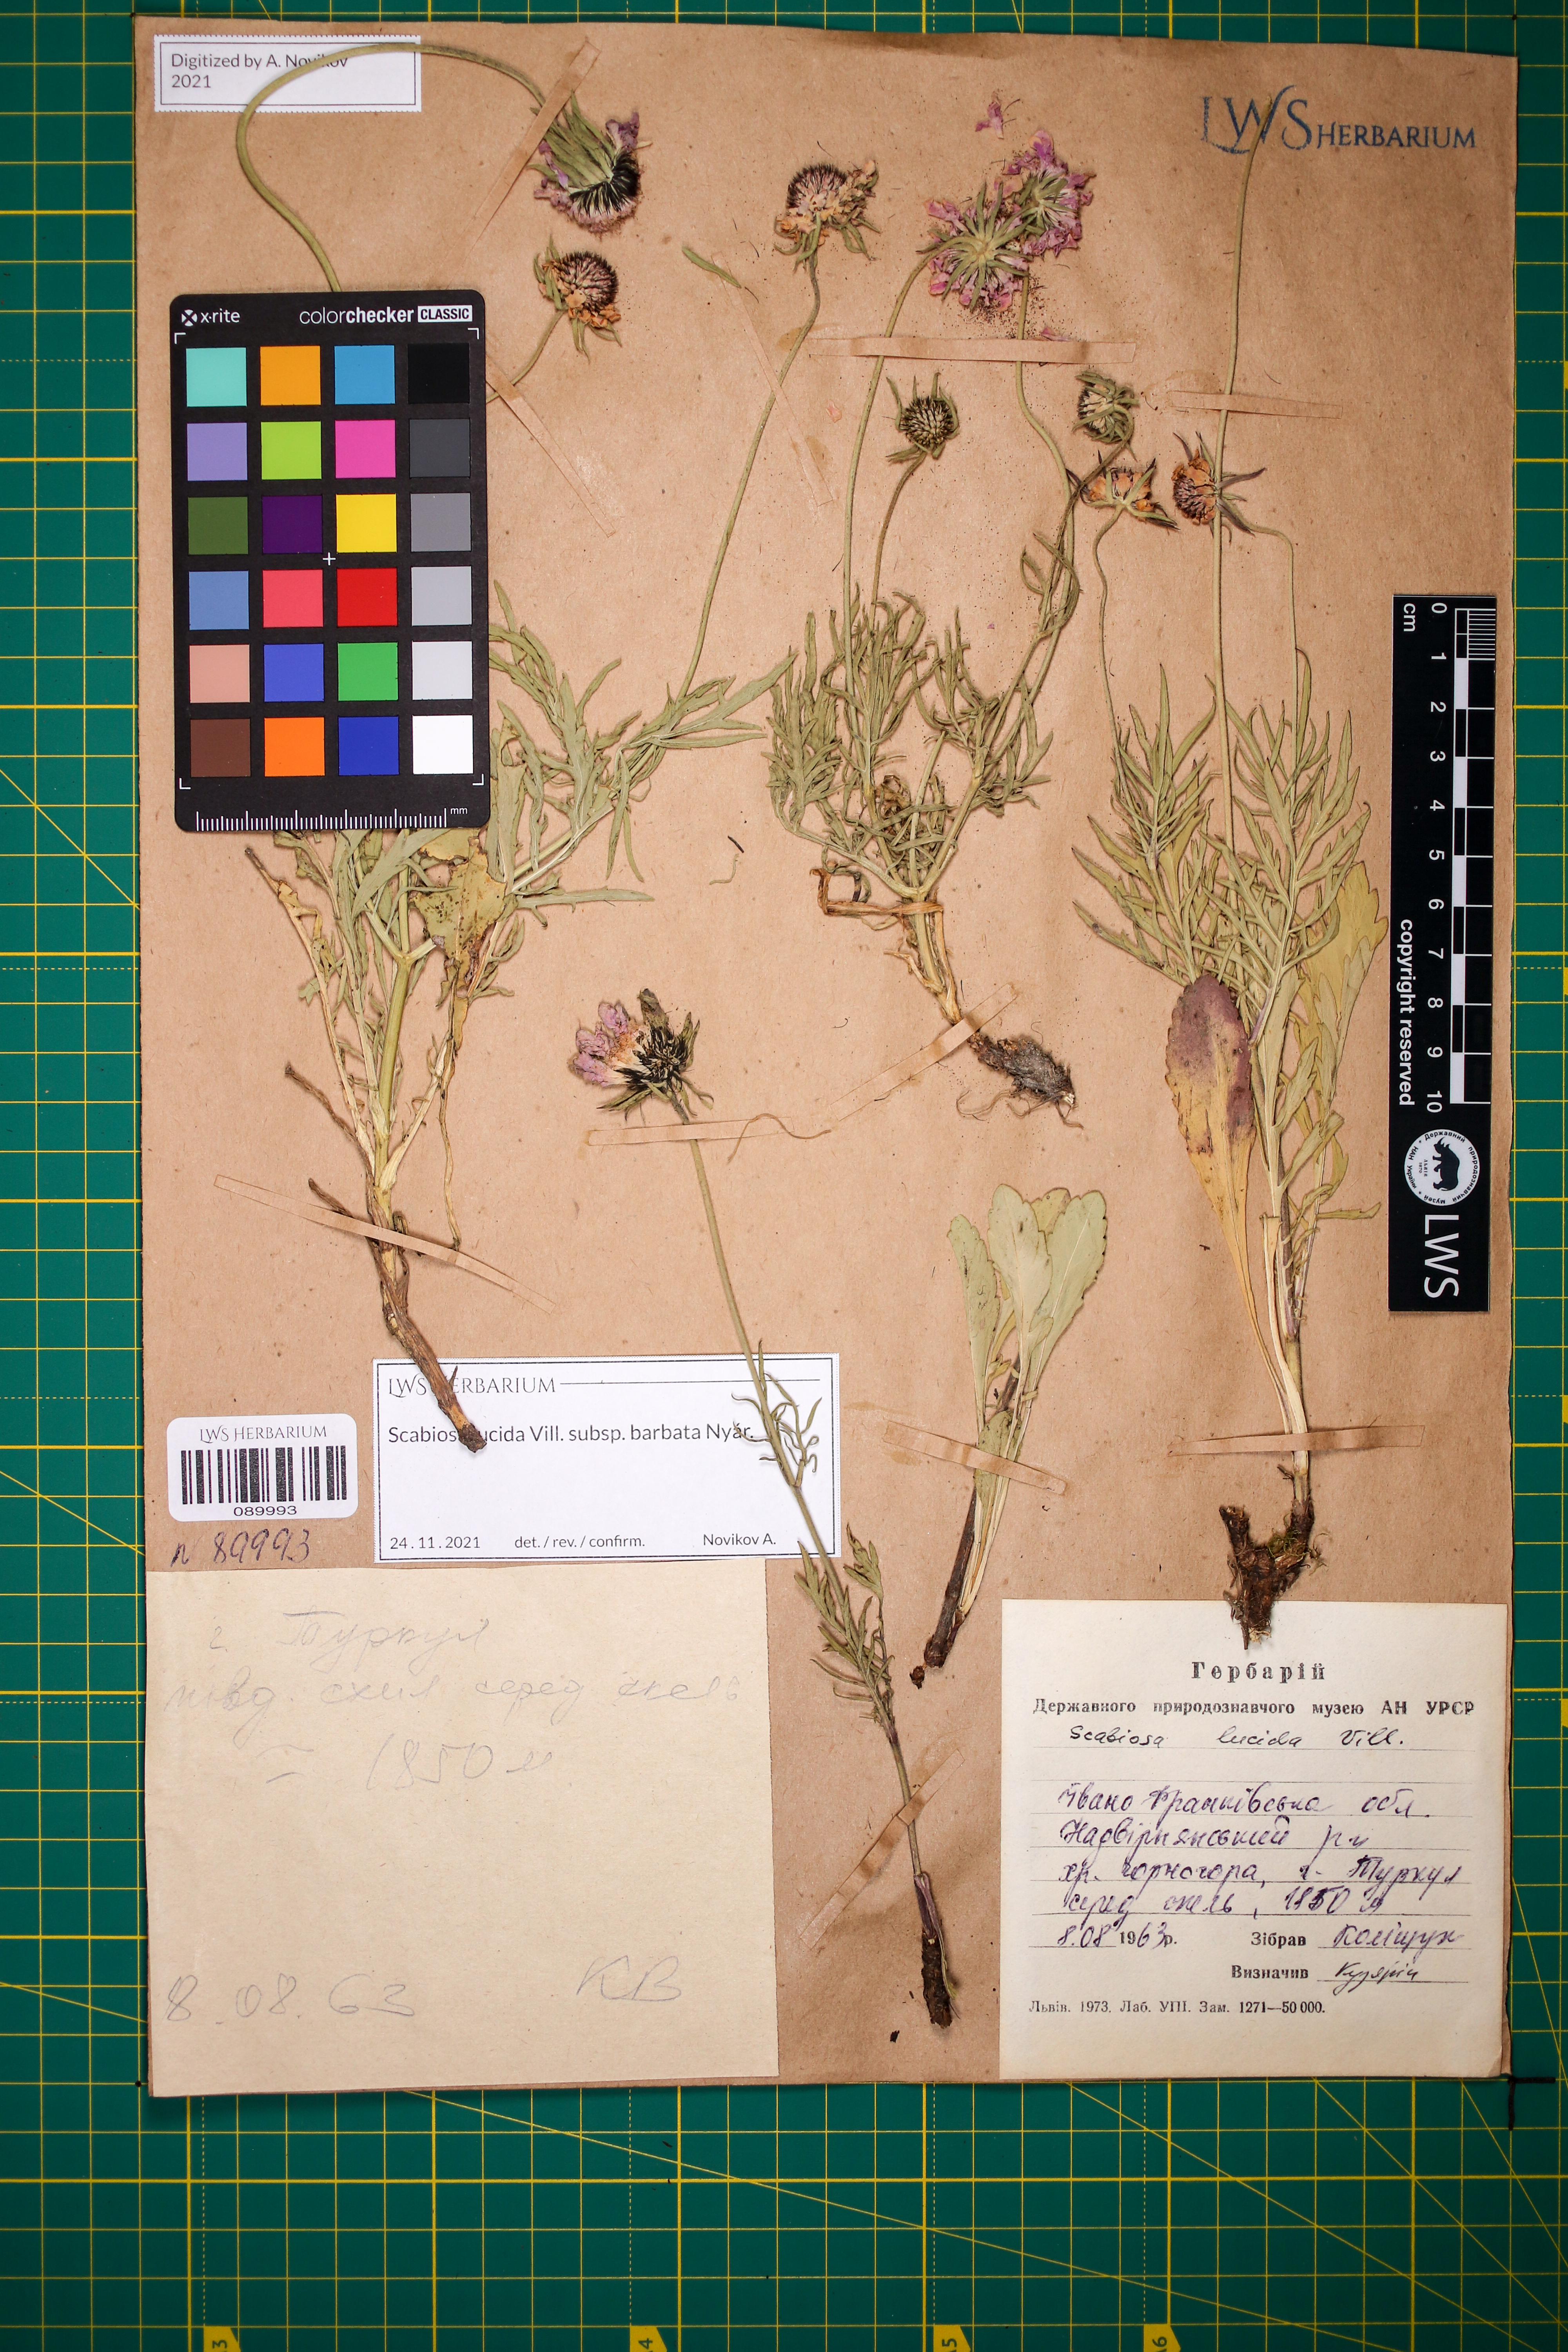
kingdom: Plantae
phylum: Tracheophyta
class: Magnoliopsida
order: Dipsacales
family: Caprifoliaceae
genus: Scabiosa
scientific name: Scabiosa lucida
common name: Shining scabious
